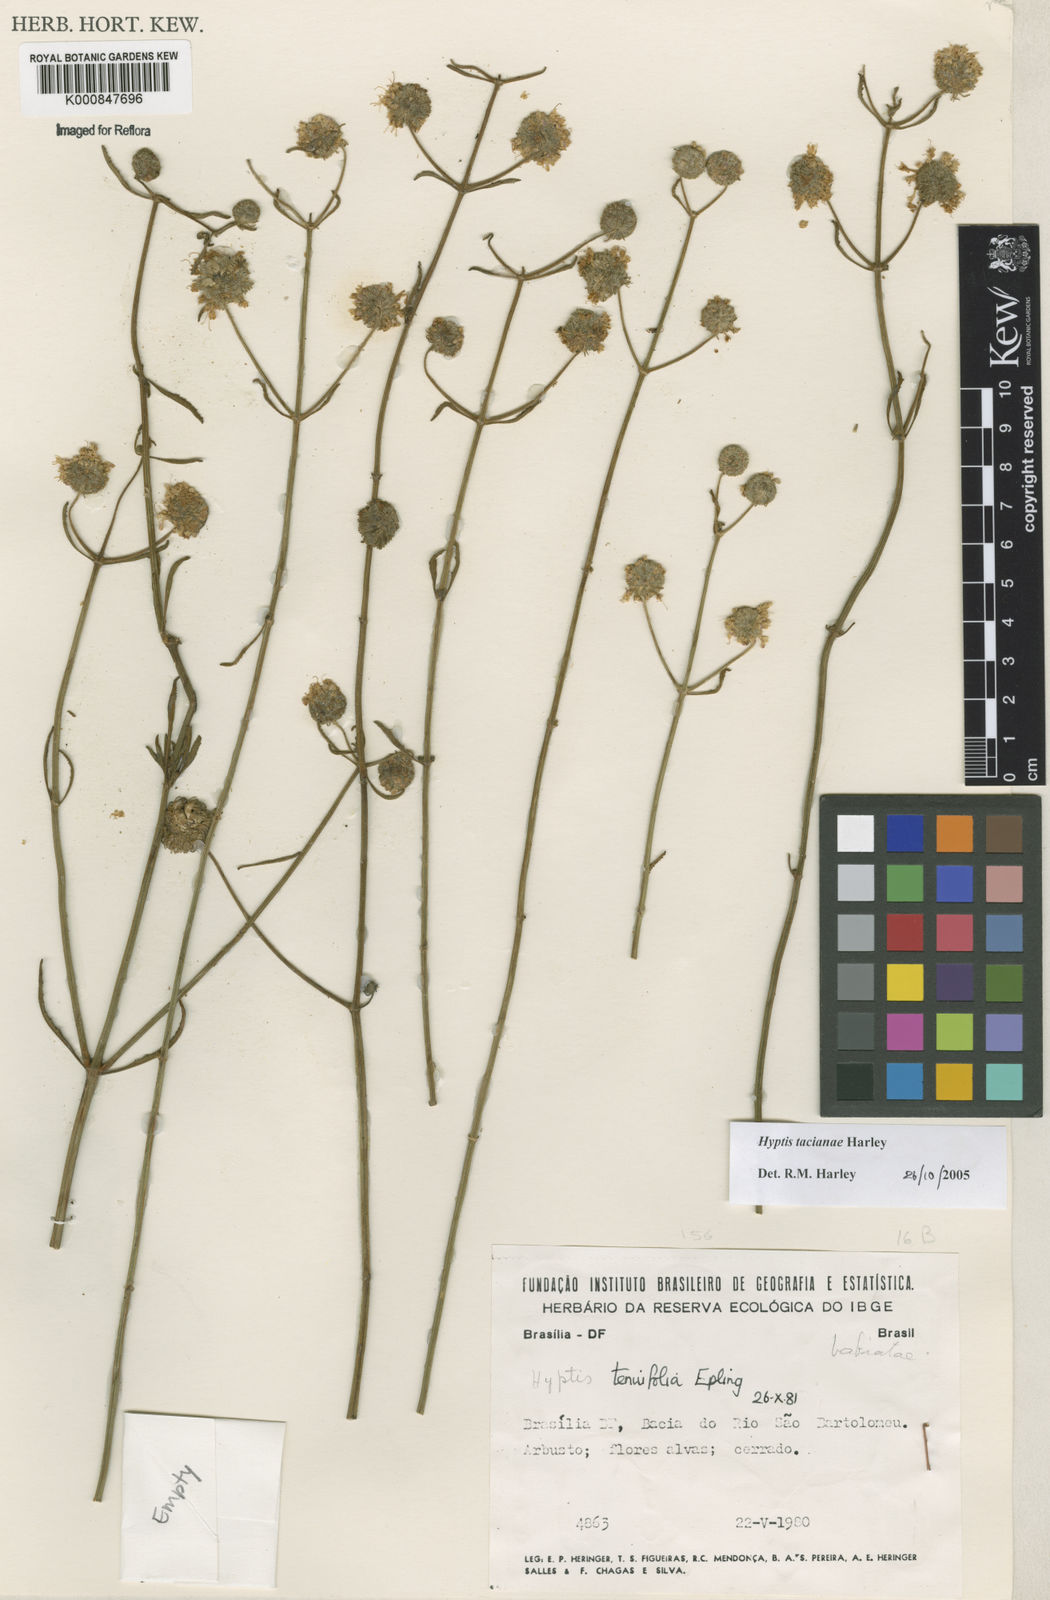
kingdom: Plantae
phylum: Tracheophyta
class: Magnoliopsida
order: Lamiales
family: Lamiaceae
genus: Cyanocephalus
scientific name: Cyanocephalus tacianae
